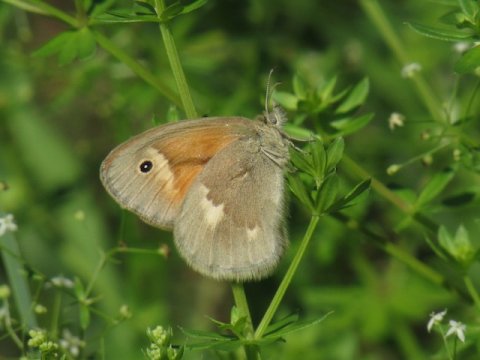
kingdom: Animalia
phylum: Arthropoda
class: Insecta
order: Lepidoptera
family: Nymphalidae
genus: Coenonympha
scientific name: Coenonympha tullia
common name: Large Heath
